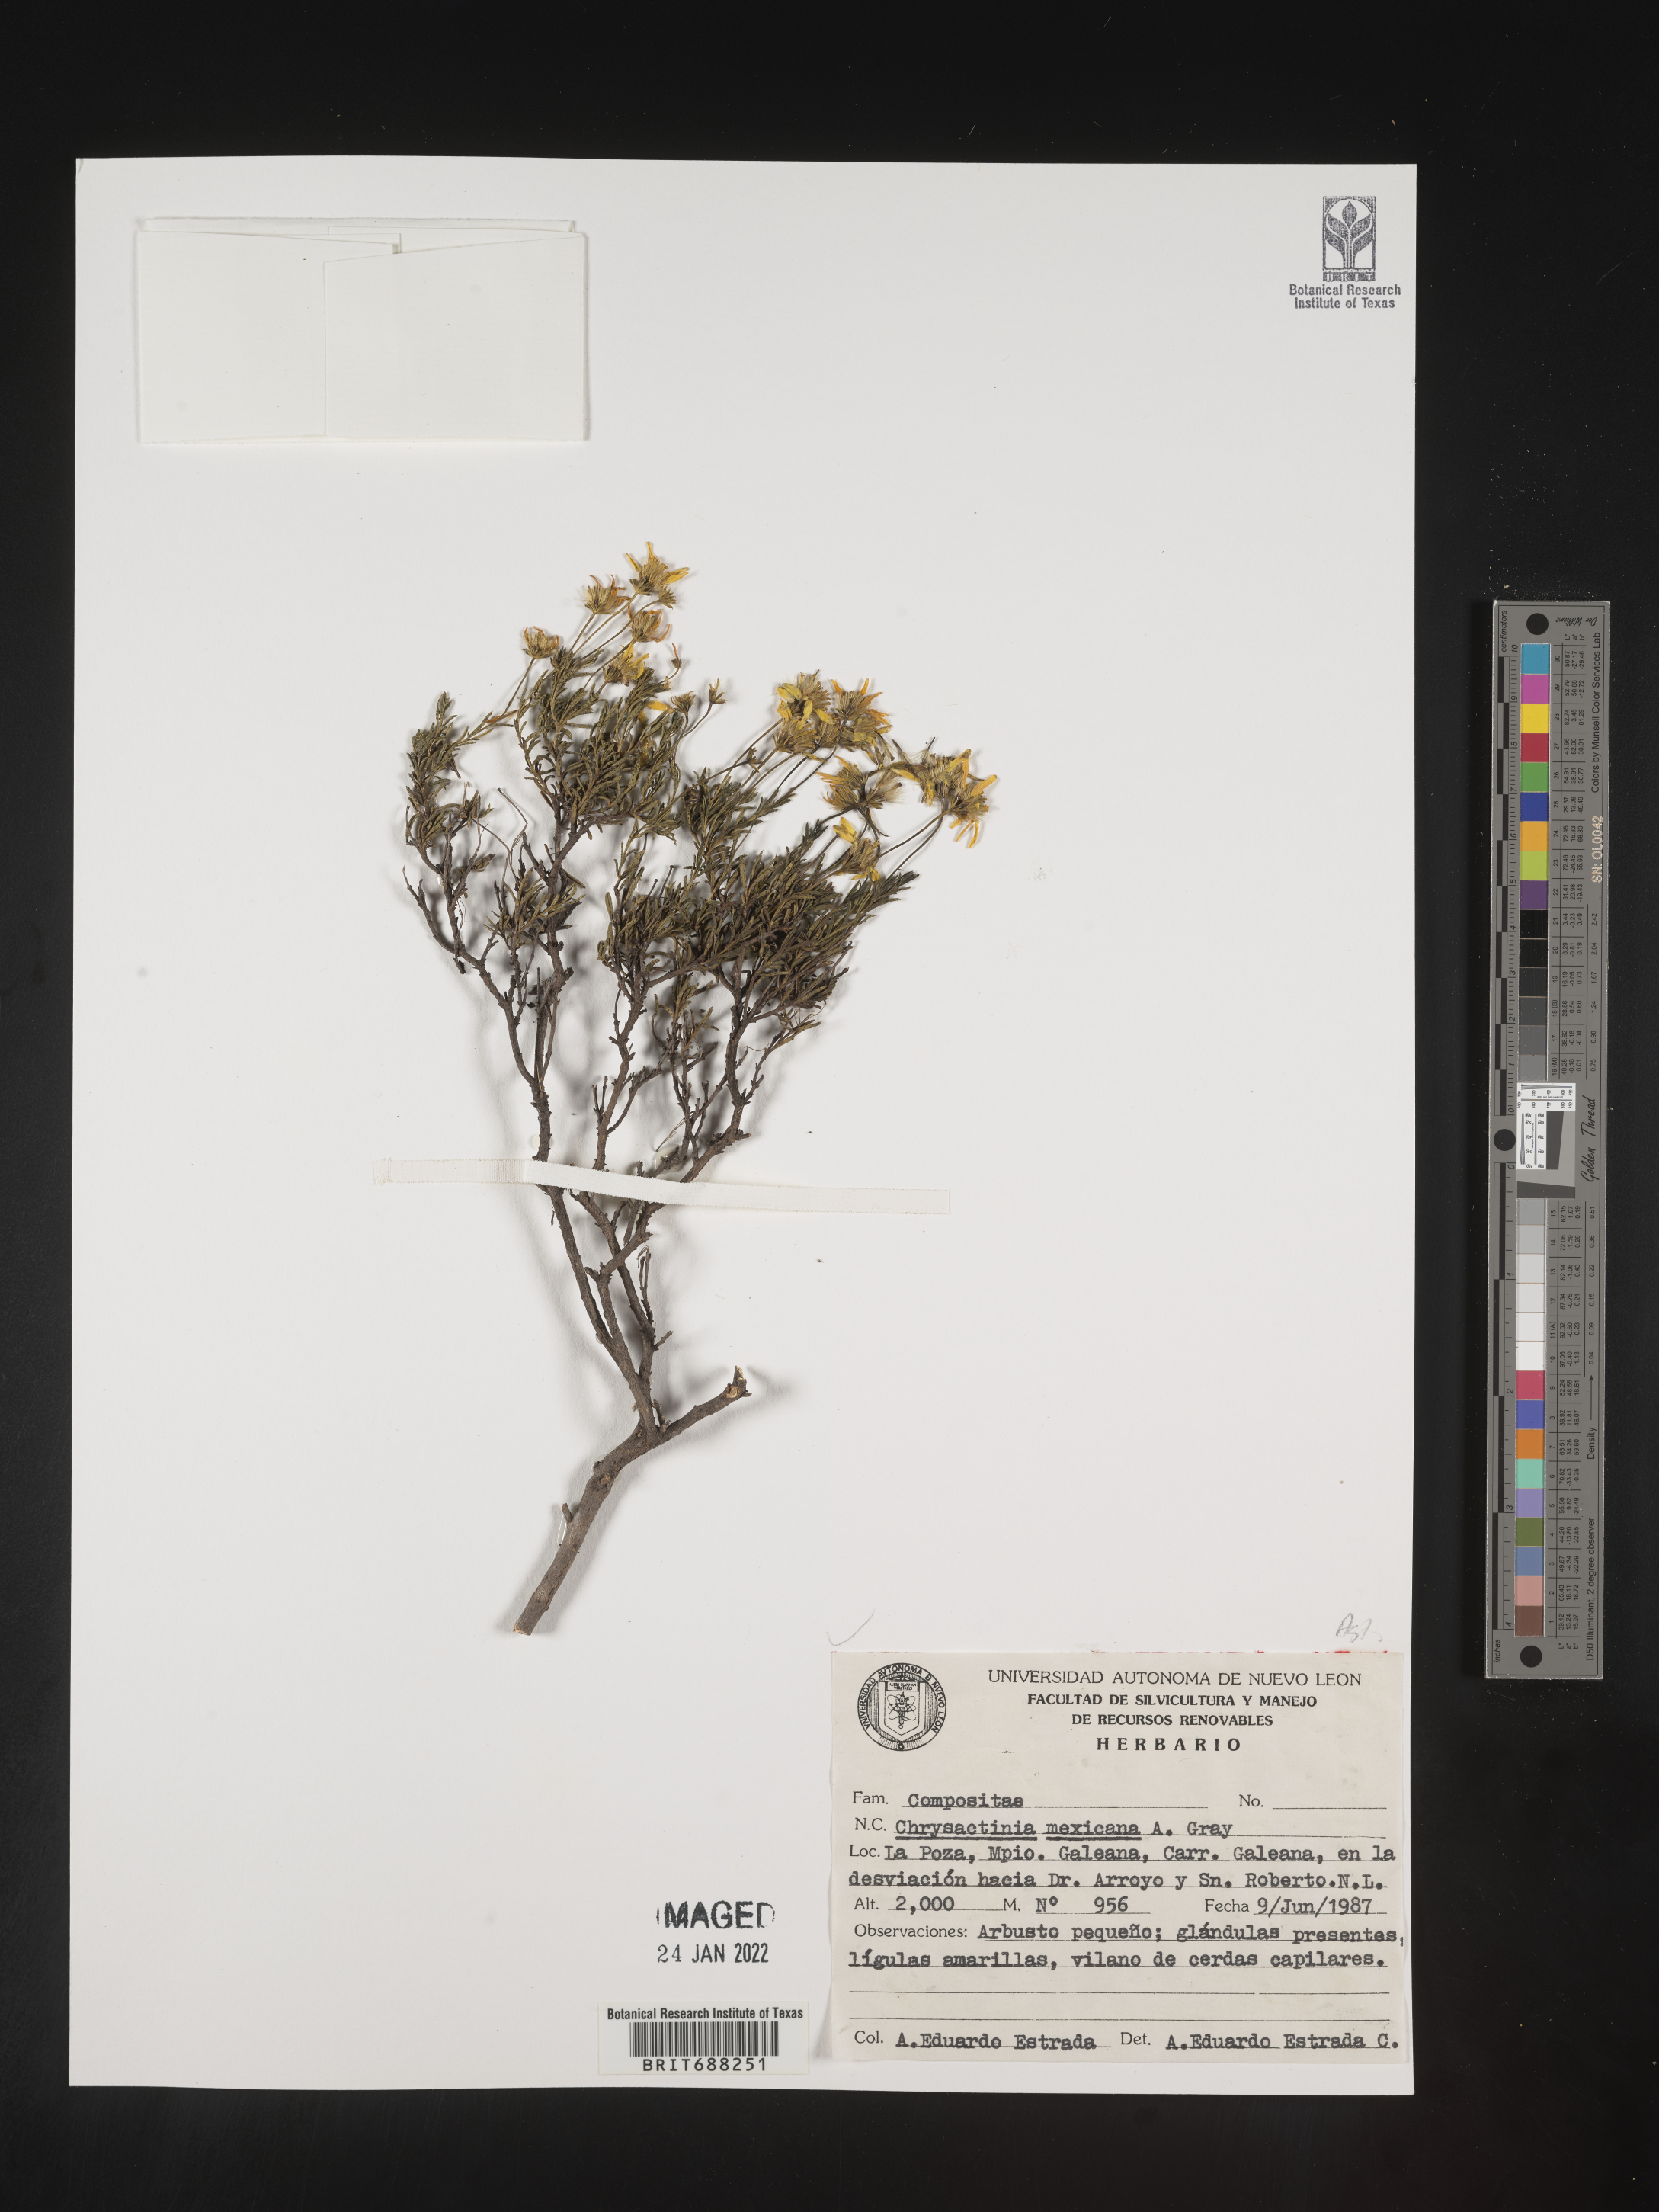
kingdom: Plantae
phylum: Tracheophyta
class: Magnoliopsida
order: Asterales
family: Asteraceae
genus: Chrysactinia
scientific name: Chrysactinia
